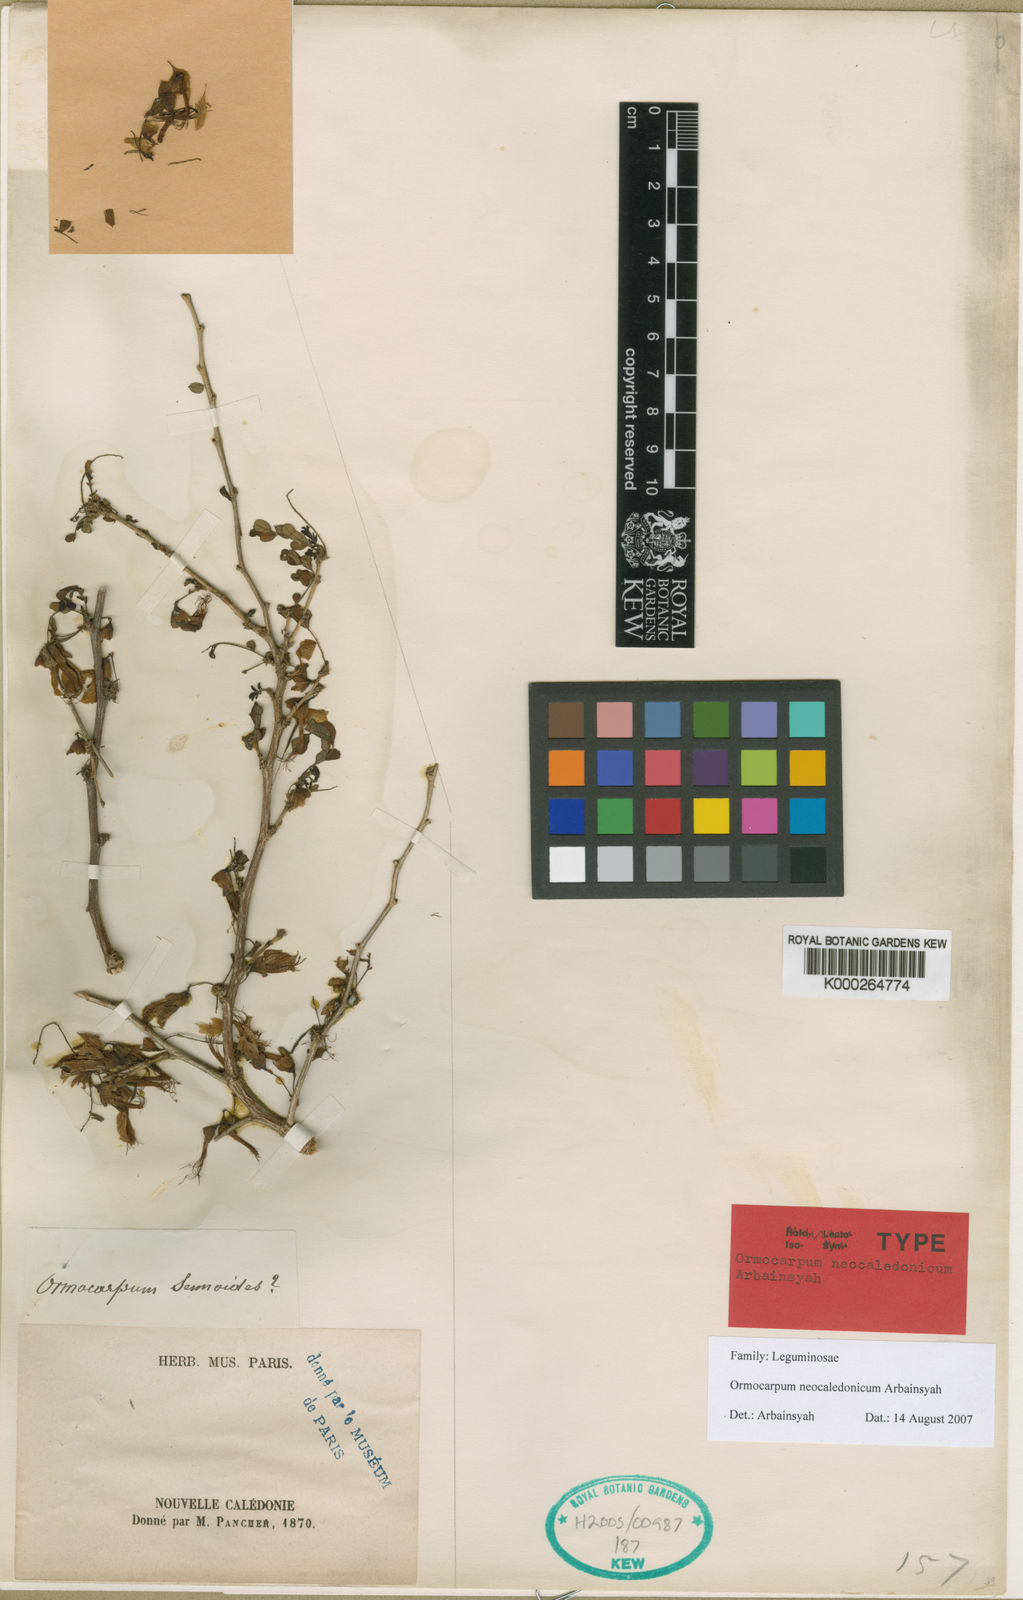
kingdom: Plantae
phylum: Tracheophyta
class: Magnoliopsida
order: Fabales
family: Fabaceae
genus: Ormocarpum
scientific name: Ormocarpum
